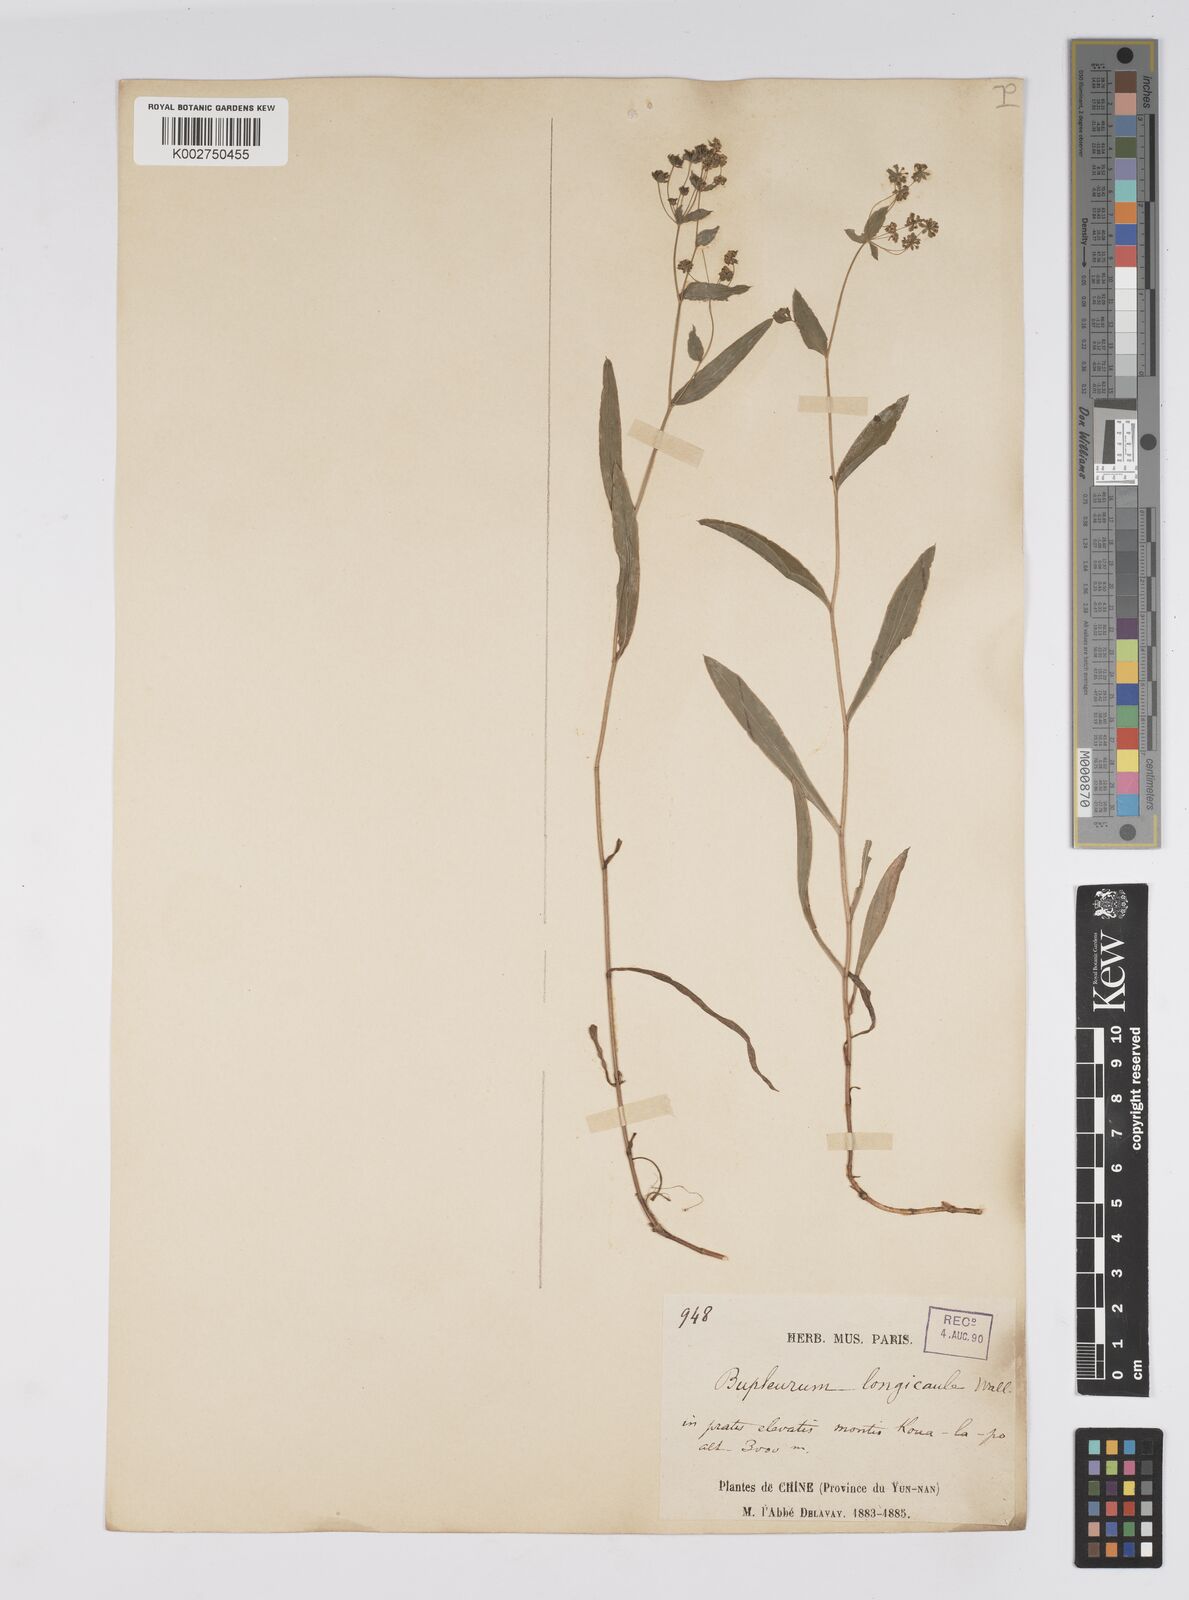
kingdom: Plantae
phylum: Tracheophyta
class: Magnoliopsida
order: Apiales
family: Apiaceae
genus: Bupleurum
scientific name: Bupleurum longicaule
